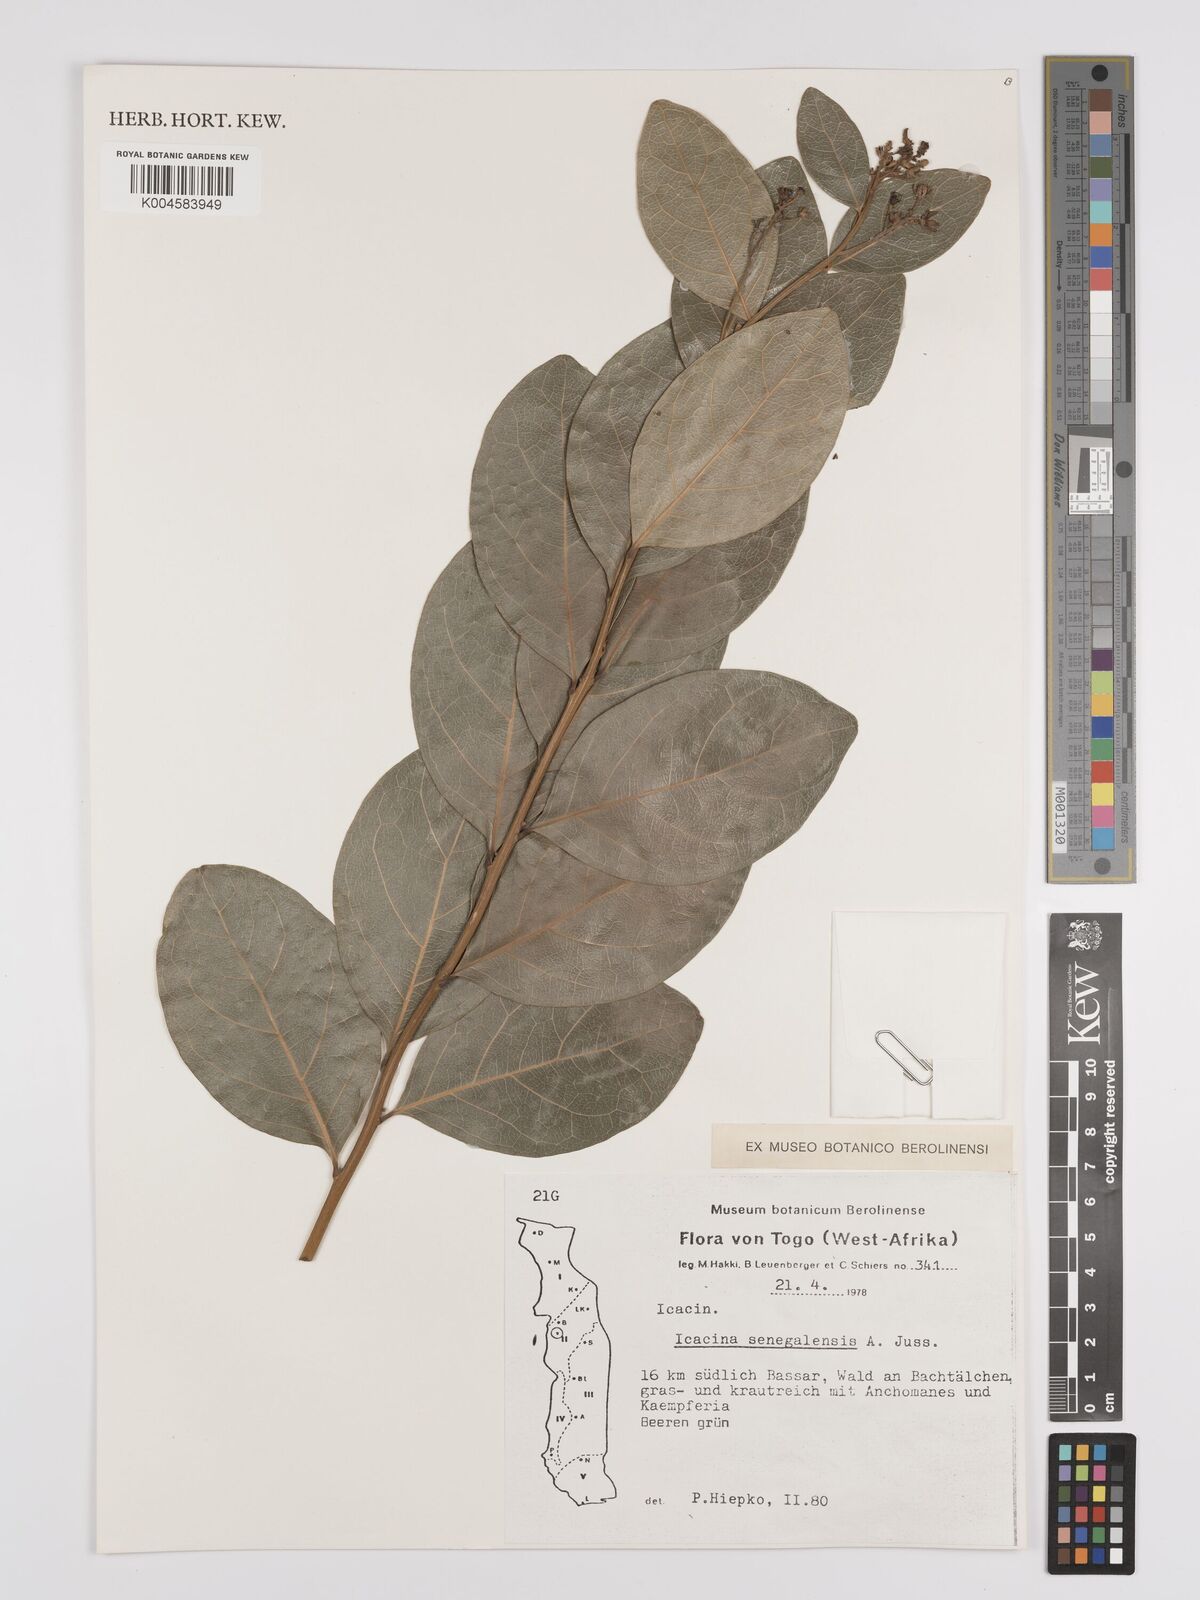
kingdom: Plantae
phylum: Tracheophyta
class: Magnoliopsida
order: Icacinales
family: Icacinaceae
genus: Icacina
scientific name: Icacina oliviformis
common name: False yam
